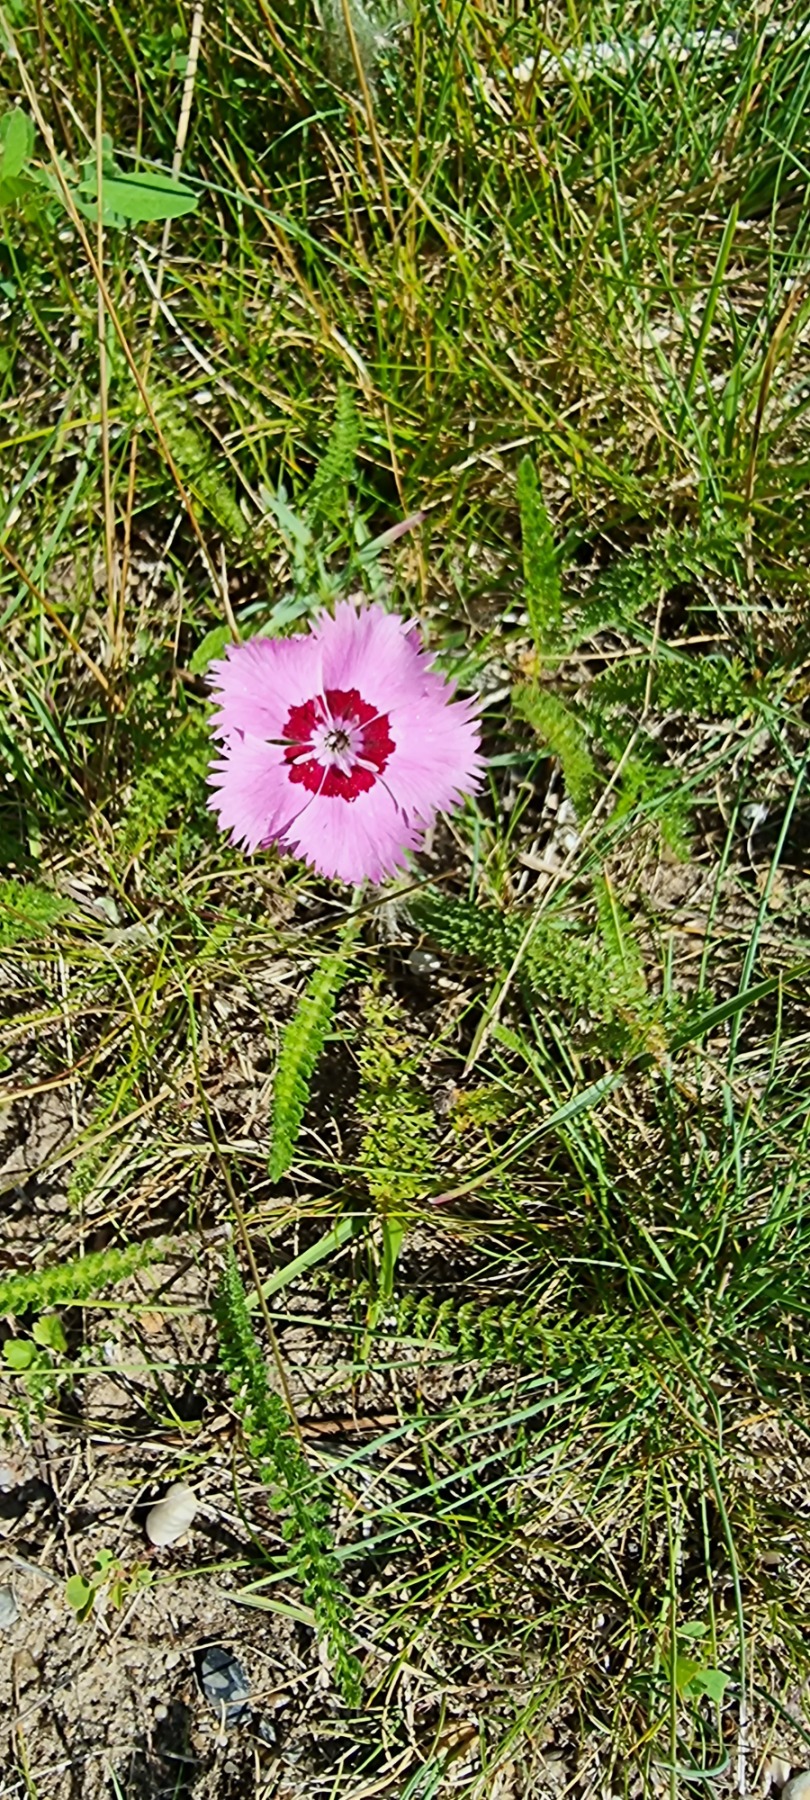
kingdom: Plantae
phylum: Tracheophyta
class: Magnoliopsida
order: Caryophyllales
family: Caryophyllaceae
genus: Dianthus
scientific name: Dianthus plumarius
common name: Fjernellike
